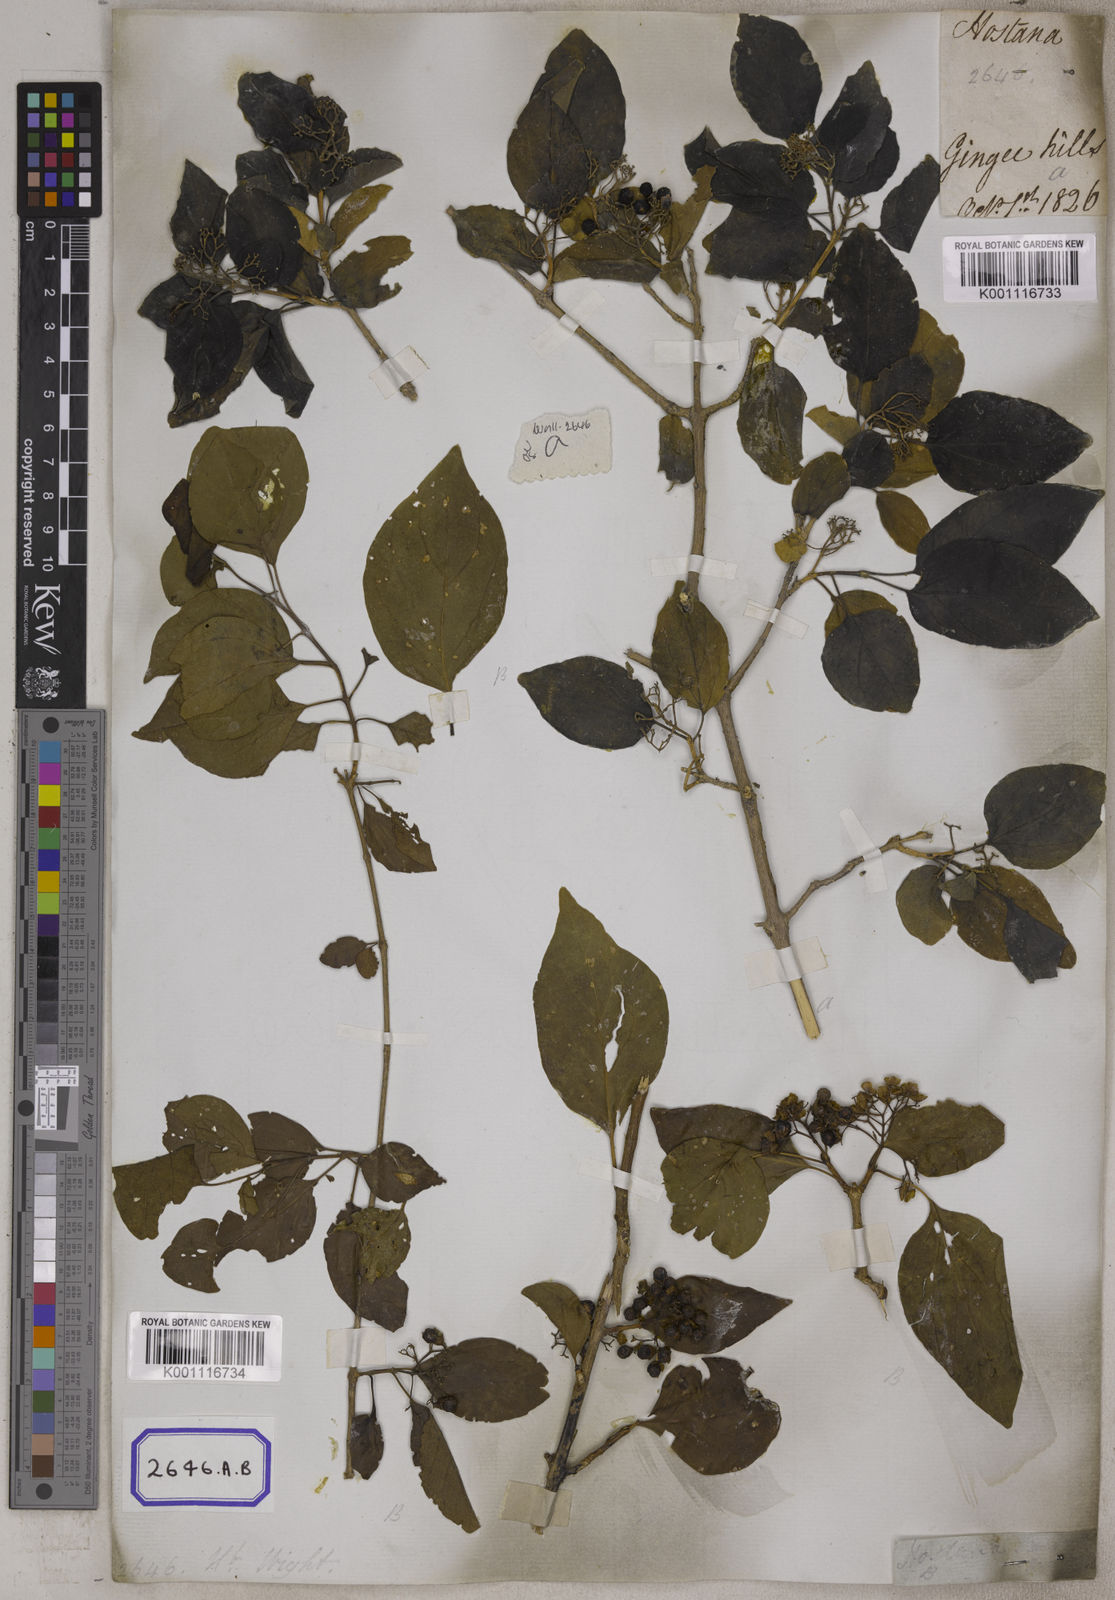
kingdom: Plantae
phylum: Tracheophyta
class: Magnoliopsida
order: Lamiales
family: Lamiaceae
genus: Premna
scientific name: Premna
